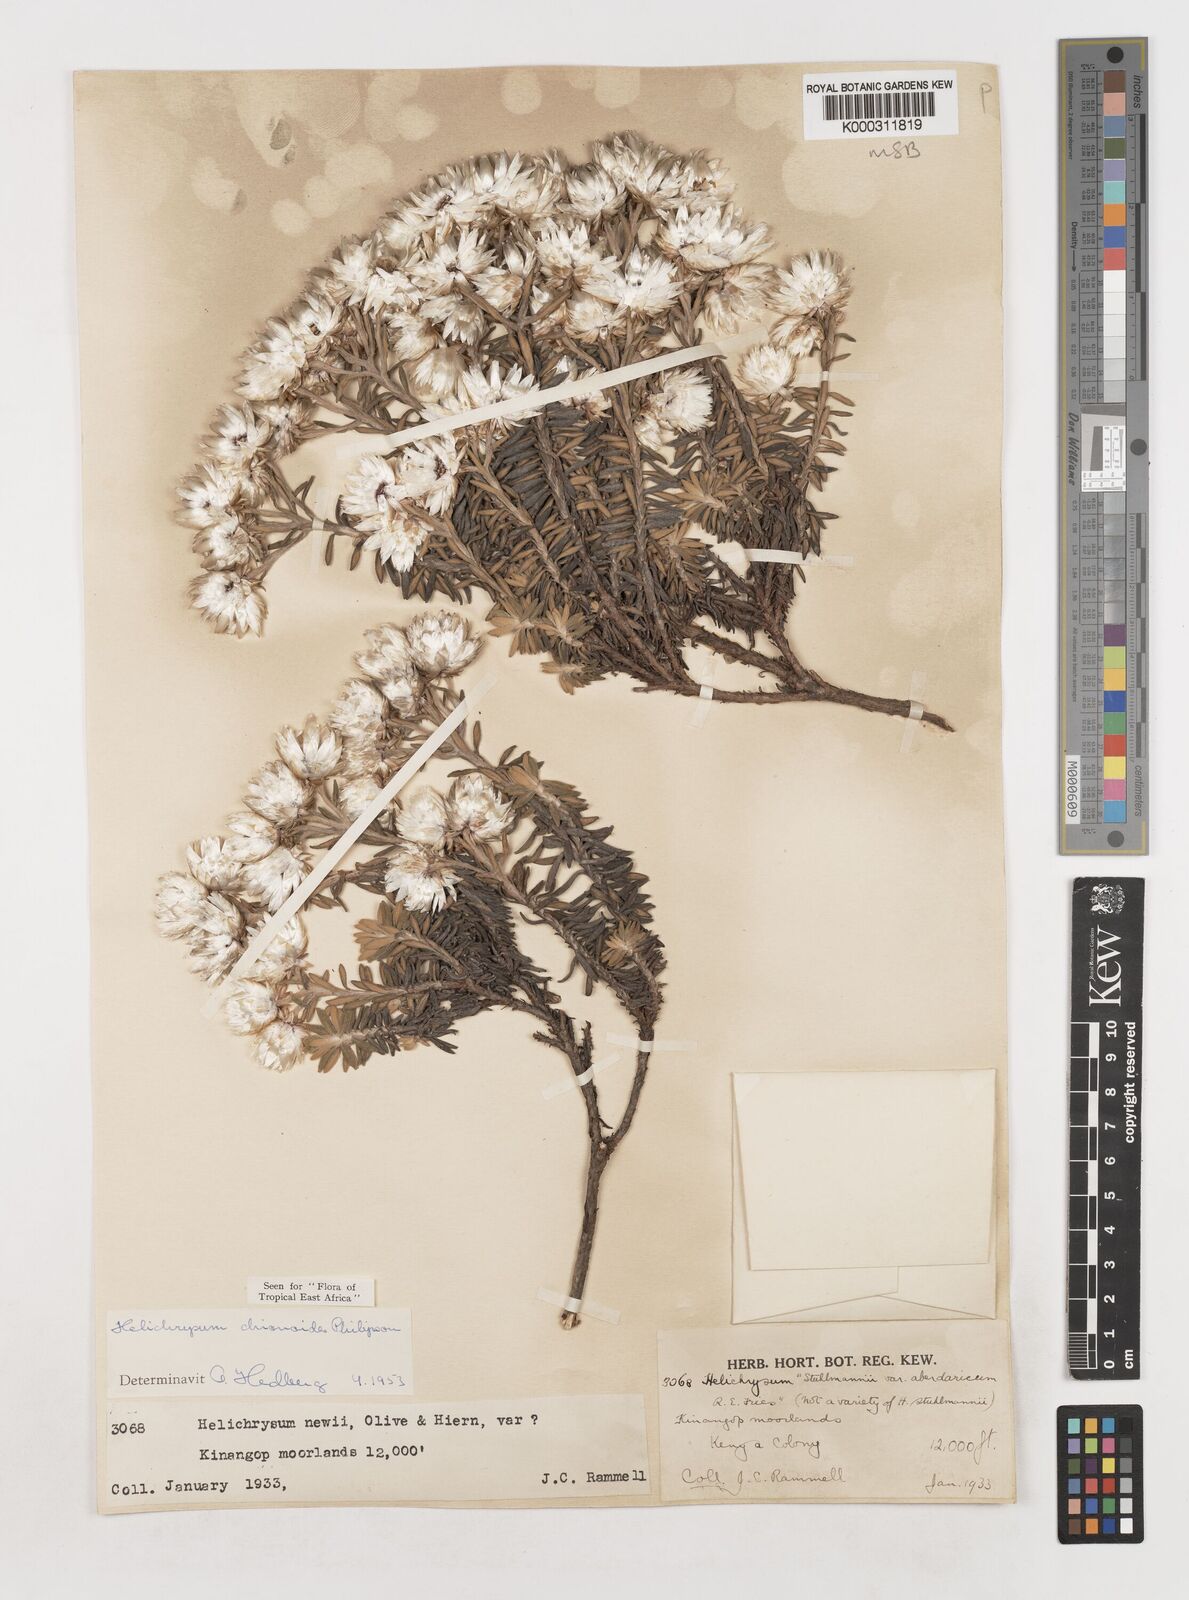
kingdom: Plantae
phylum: Tracheophyta
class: Magnoliopsida
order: Asterales
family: Asteraceae
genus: Helichrysum
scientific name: Helichrysum chionoides
